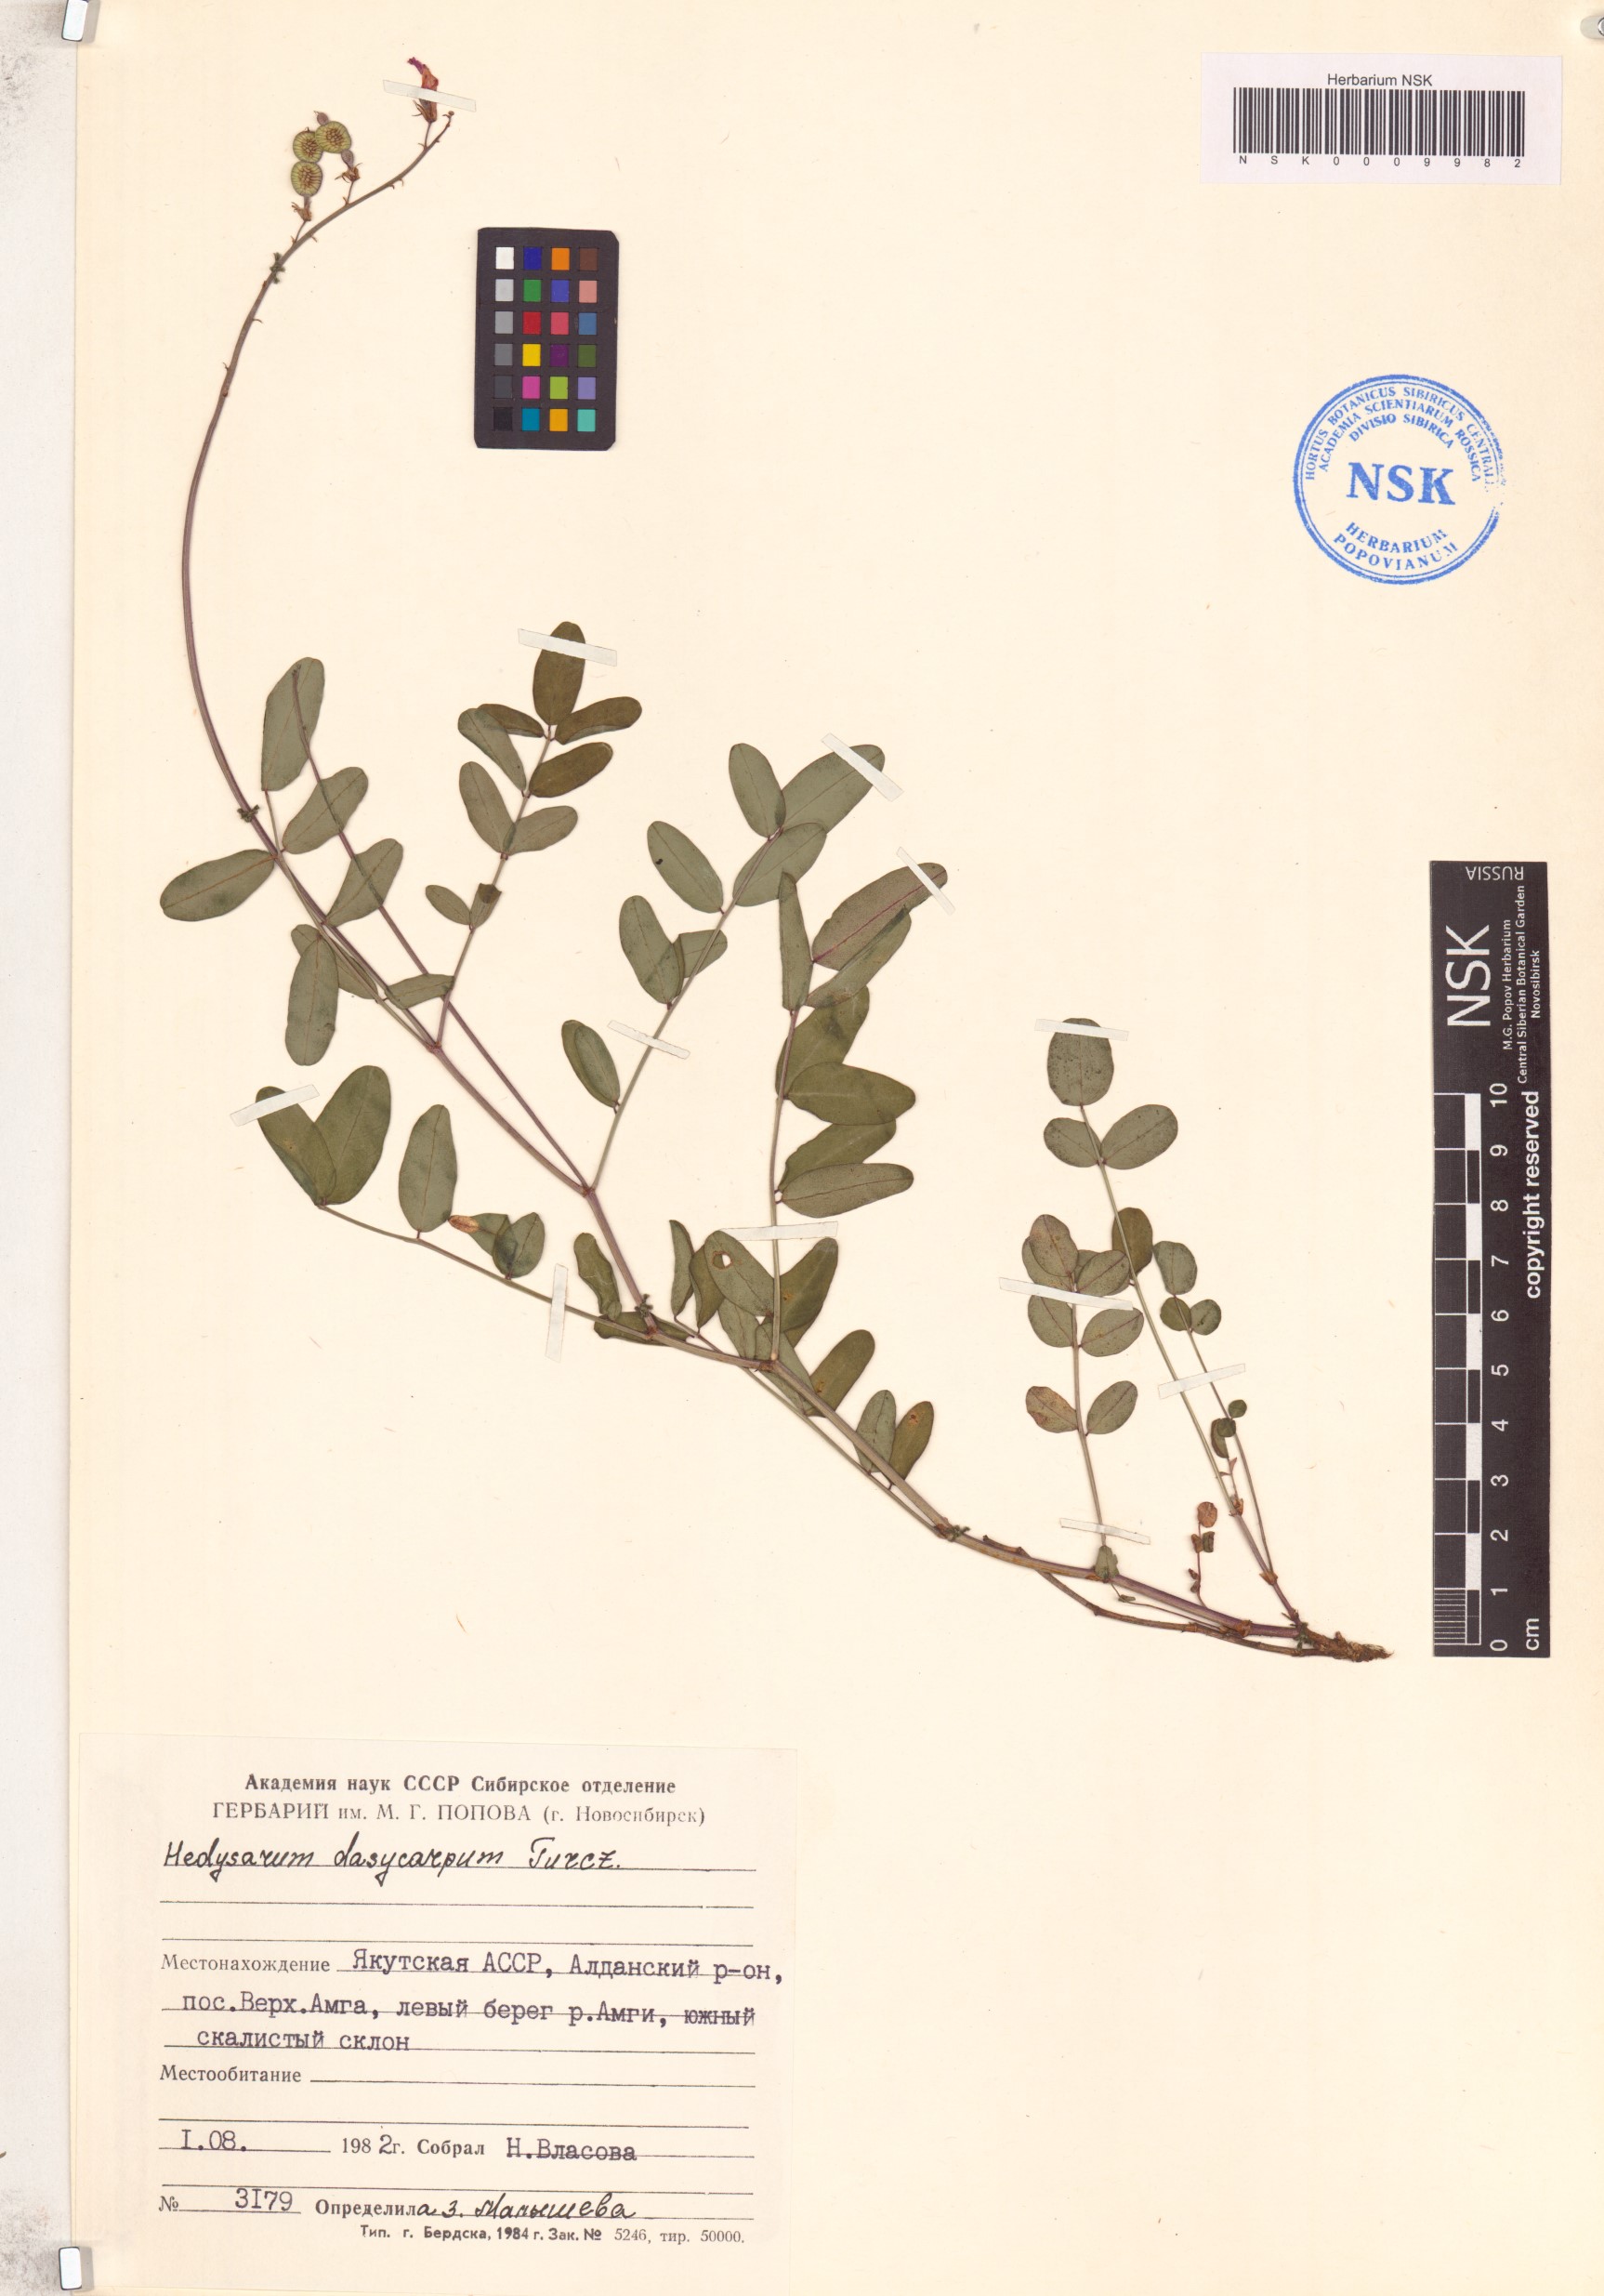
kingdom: Plantae
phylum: Tracheophyta
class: Magnoliopsida
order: Fabales
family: Fabaceae
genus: Hedysarum
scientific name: Hedysarum dasycarpum
